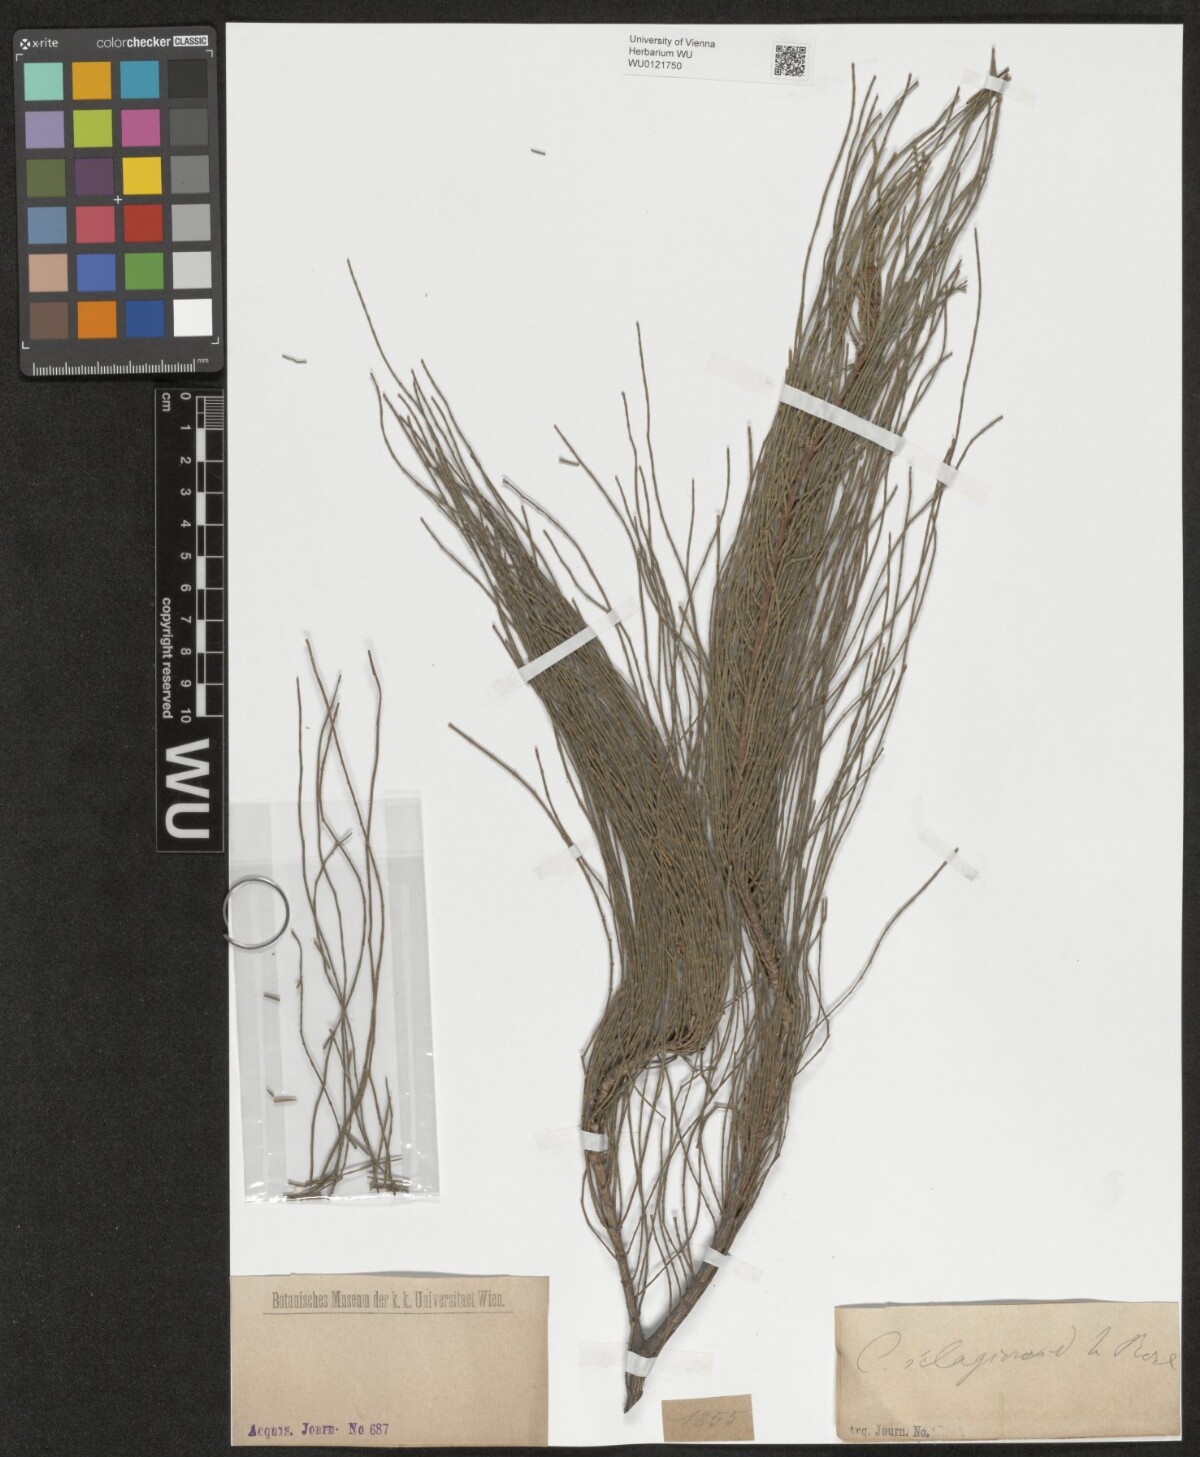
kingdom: Plantae
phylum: Tracheophyta
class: Magnoliopsida
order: Fagales
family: Casuarinaceae
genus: Casuarina
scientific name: Casuarina
